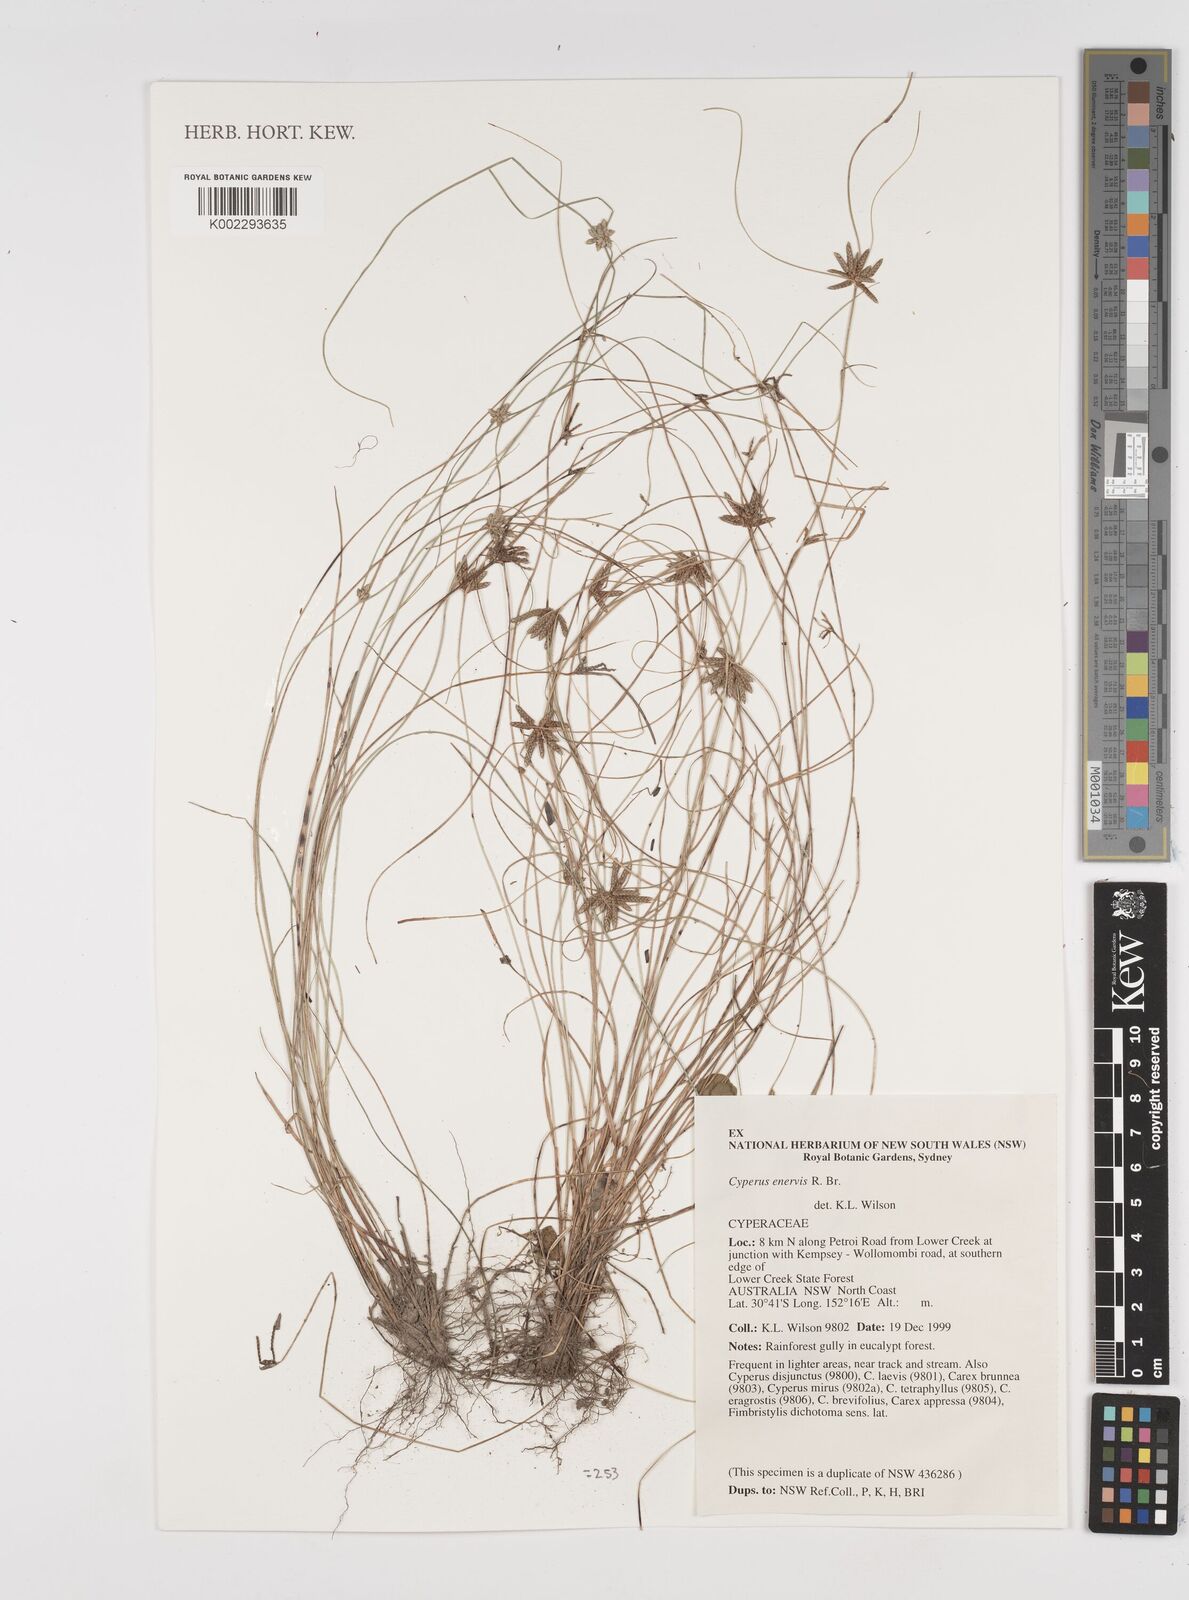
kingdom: Plantae
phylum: Tracheophyta
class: Liliopsida
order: Poales
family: Cyperaceae
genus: Cyperus
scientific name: Cyperus enervis
